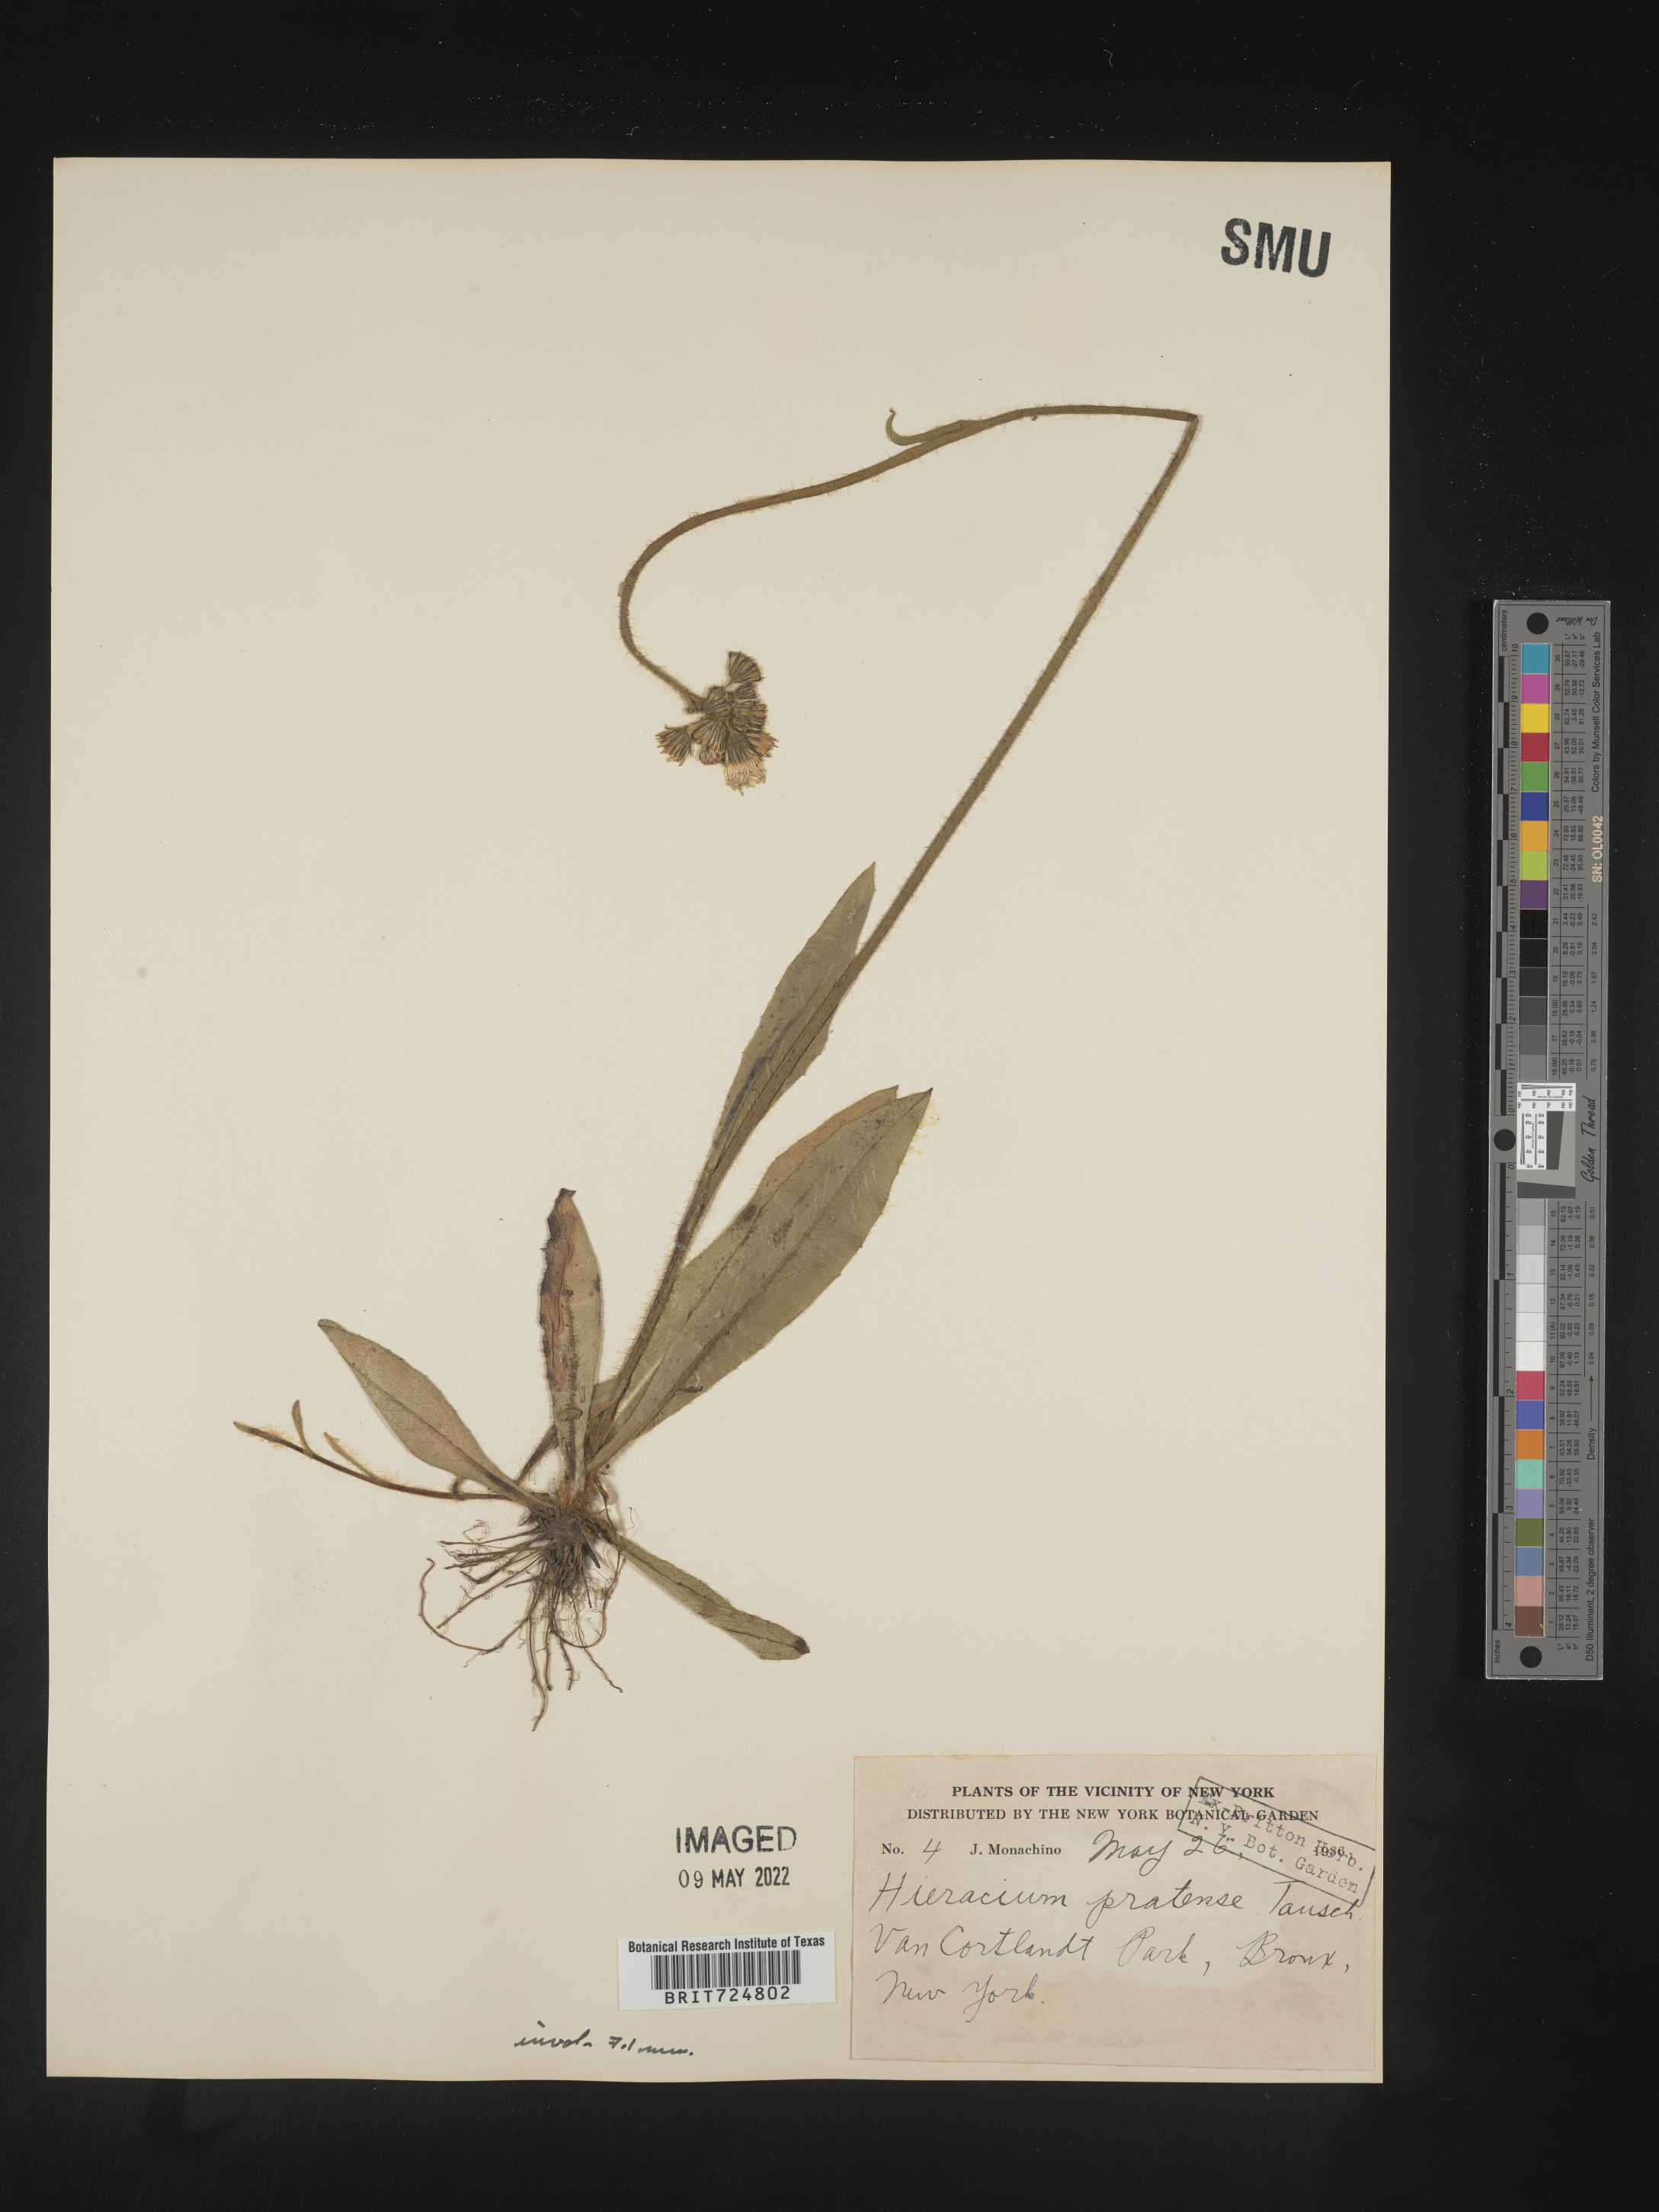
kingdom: Plantae
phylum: Tracheophyta
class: Magnoliopsida
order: Asterales
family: Asteraceae
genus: Hieracium
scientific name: Hieracium
